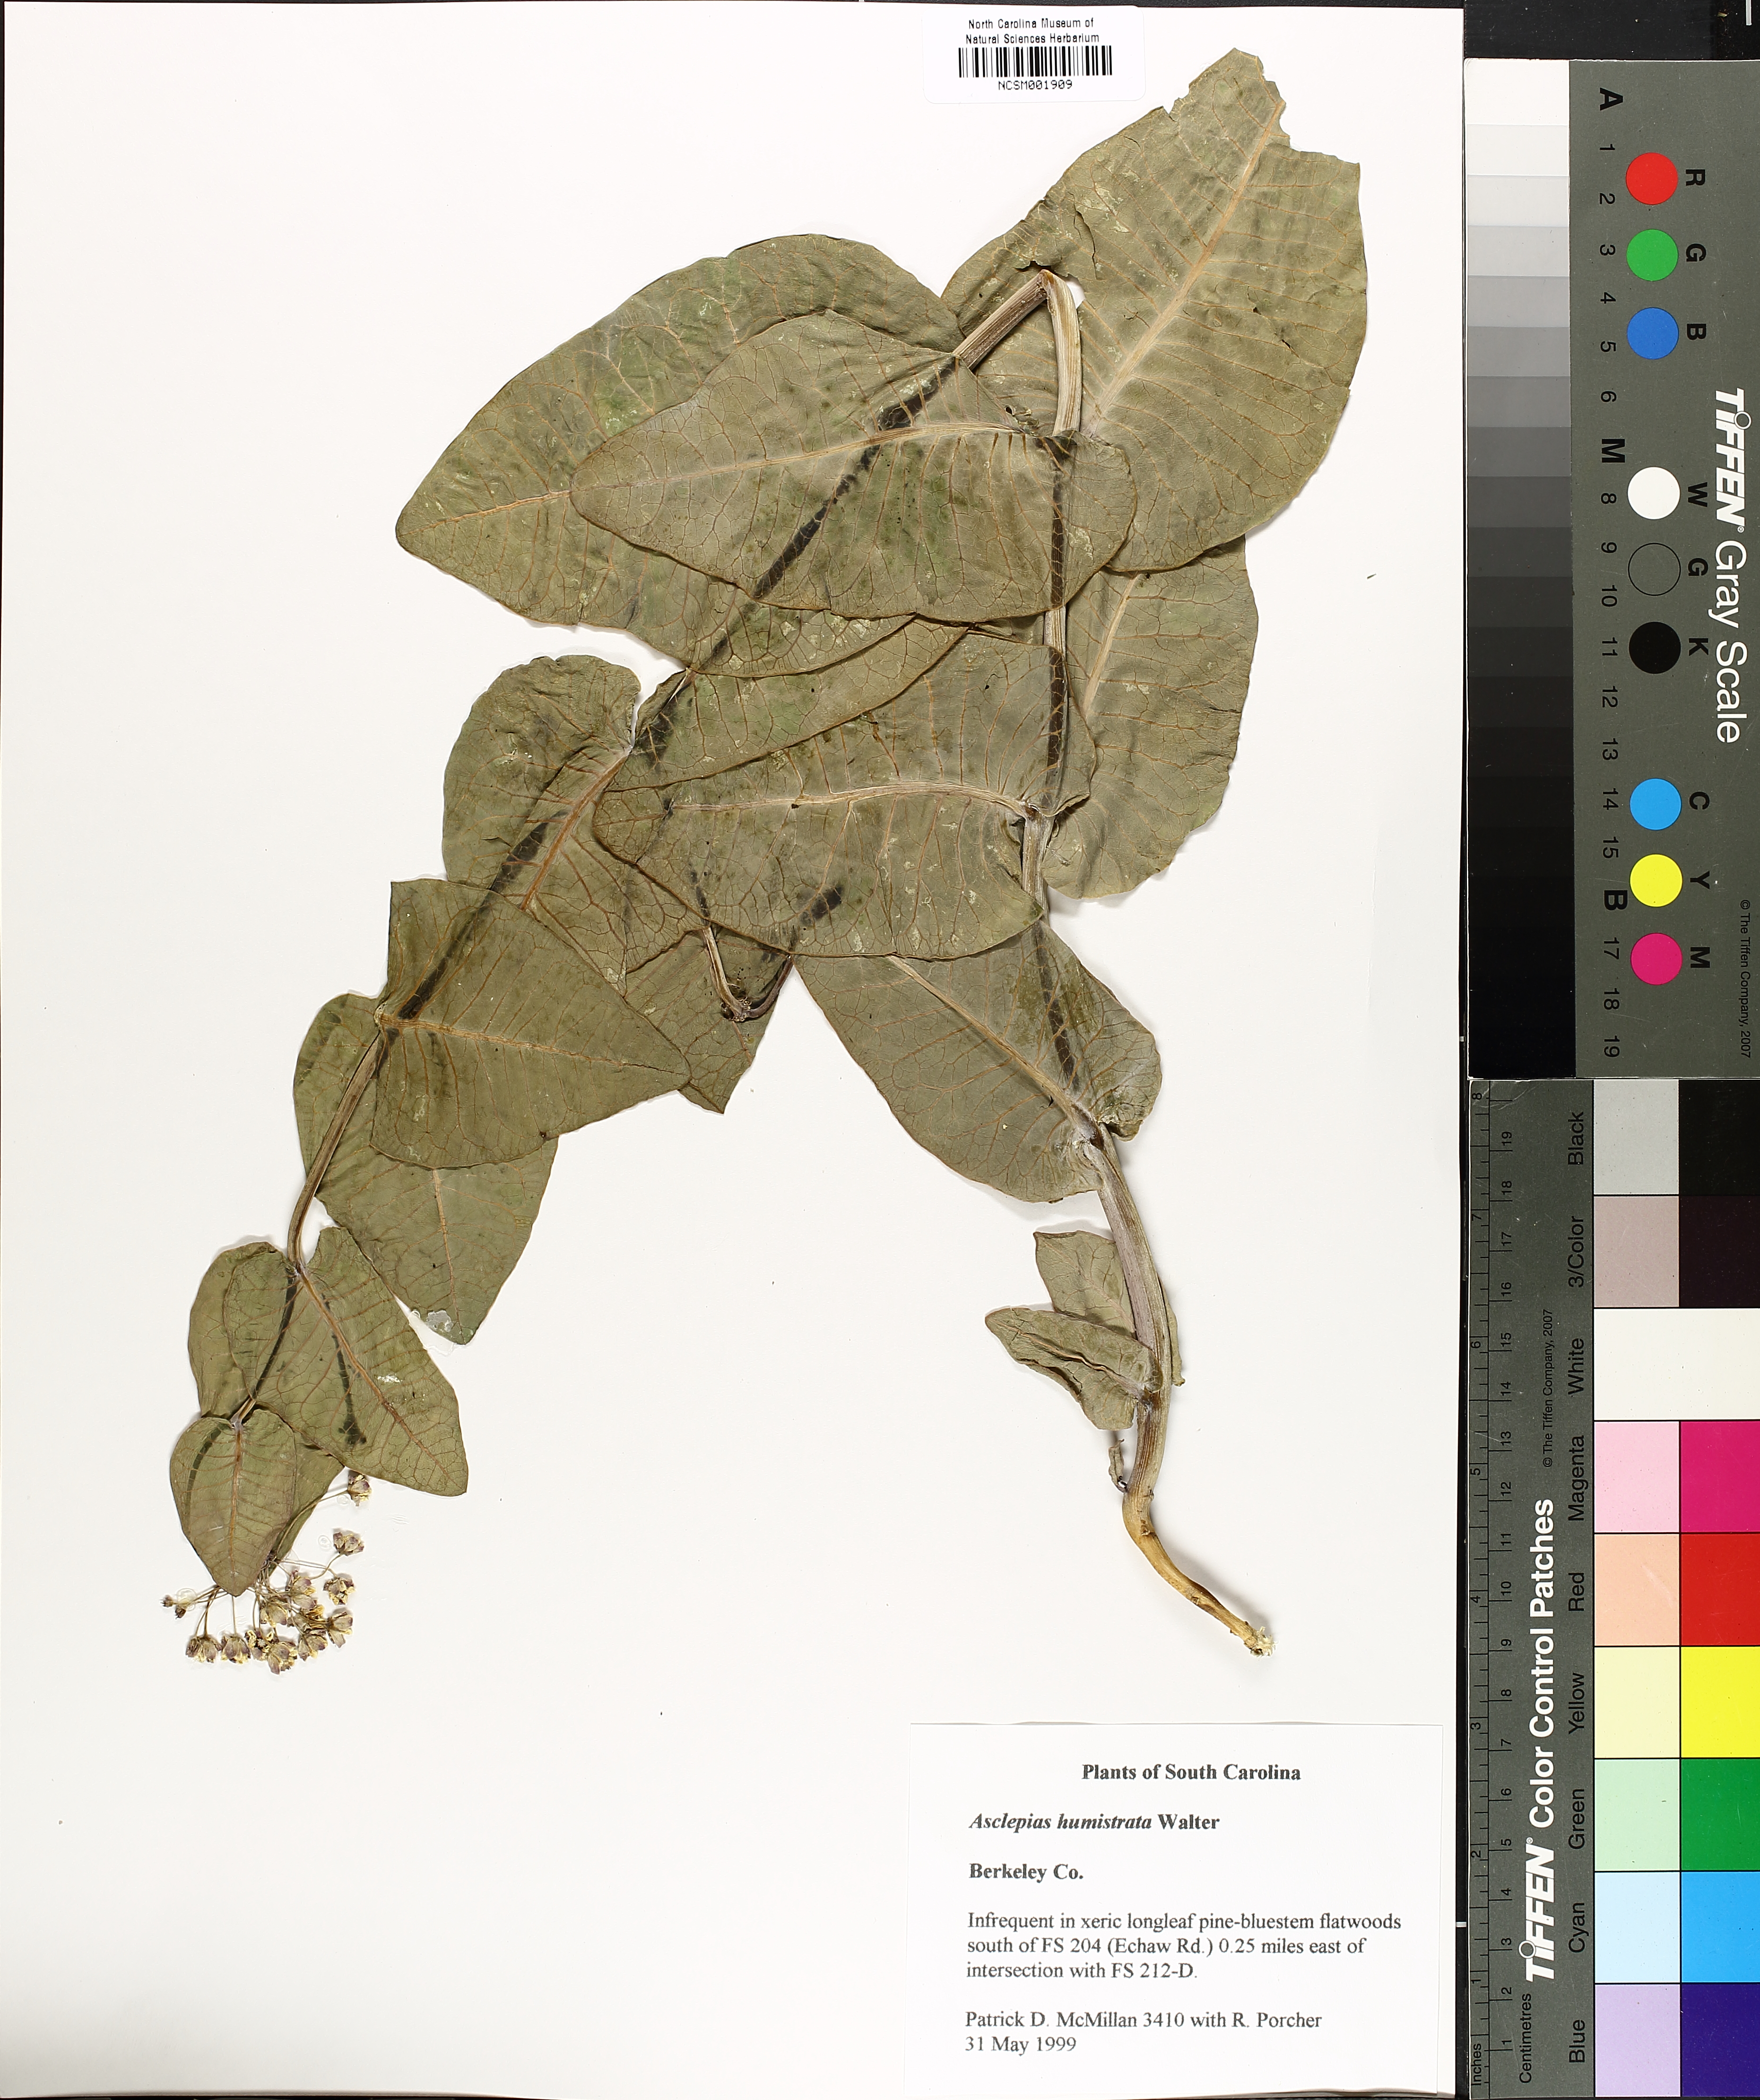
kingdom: Plantae
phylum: Tracheophyta
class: Magnoliopsida
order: Gentianales
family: Apocynaceae
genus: Asclepias
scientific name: Asclepias humistrata
